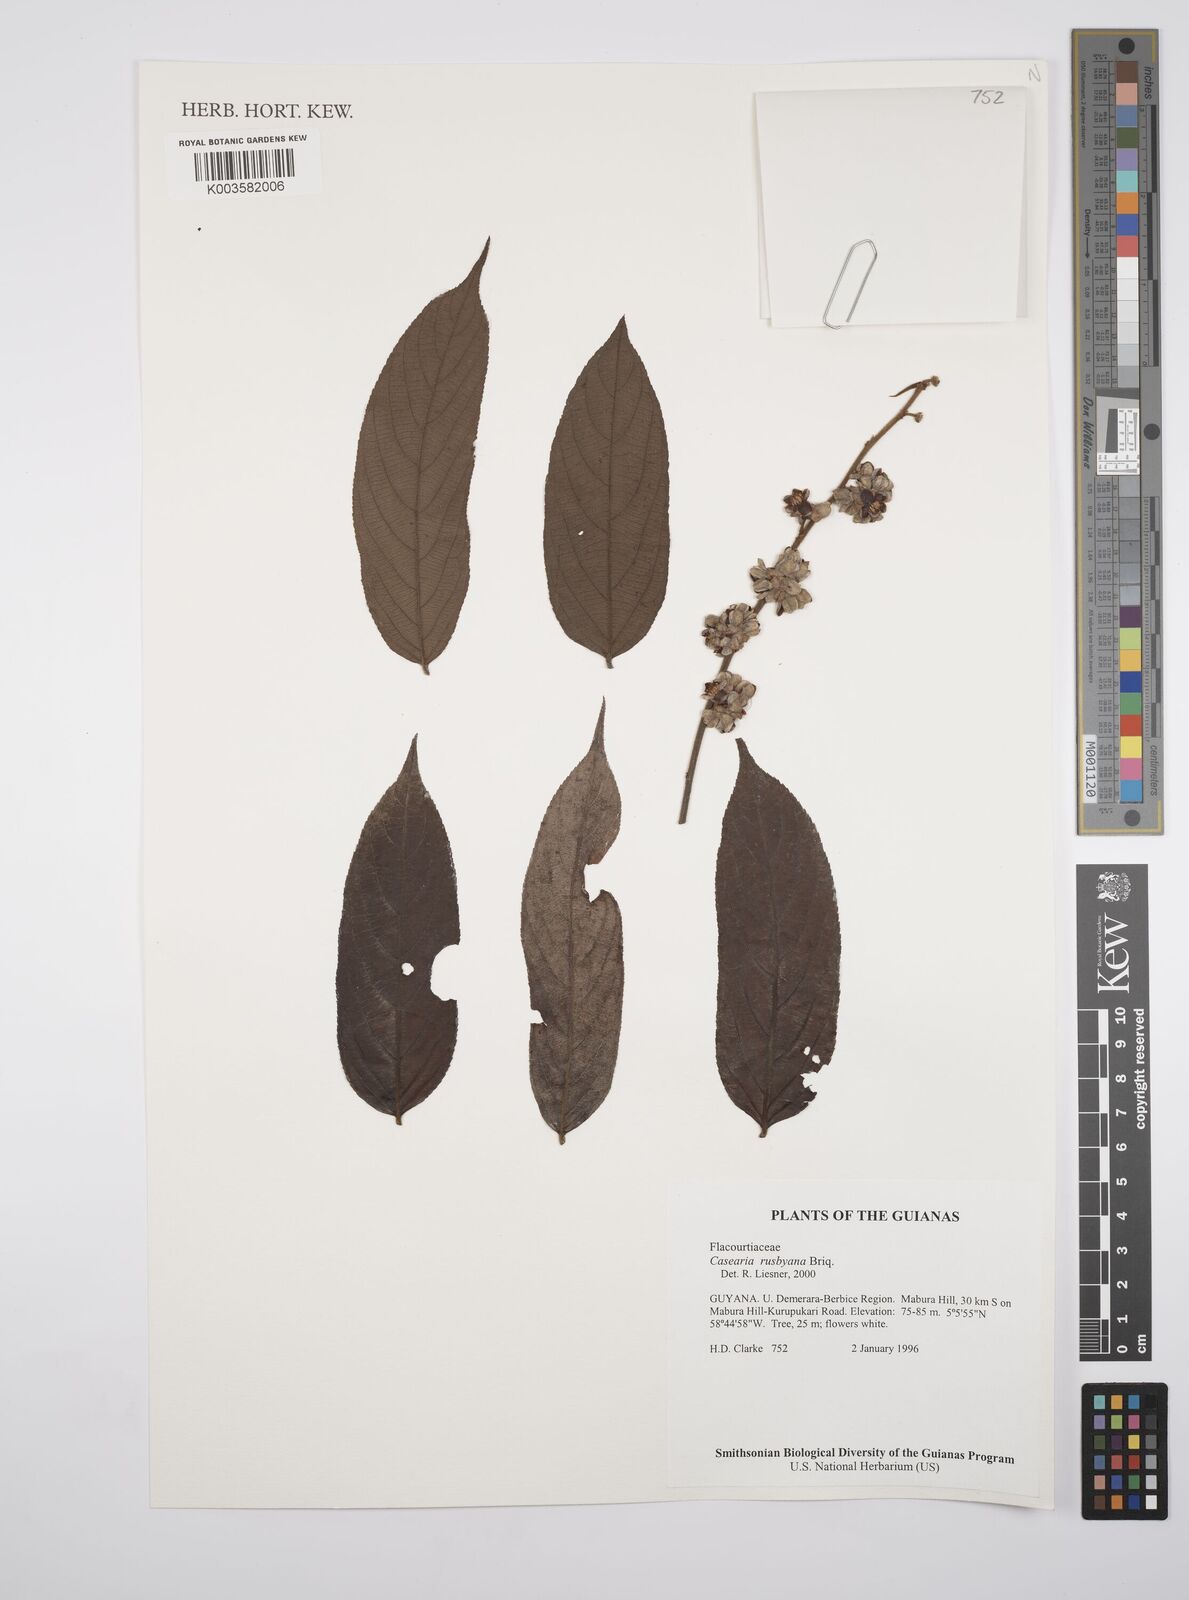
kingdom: Plantae
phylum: Tracheophyta
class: Magnoliopsida
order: Malpighiales
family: Salicaceae
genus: Casearia
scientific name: Casearia rusbyana
